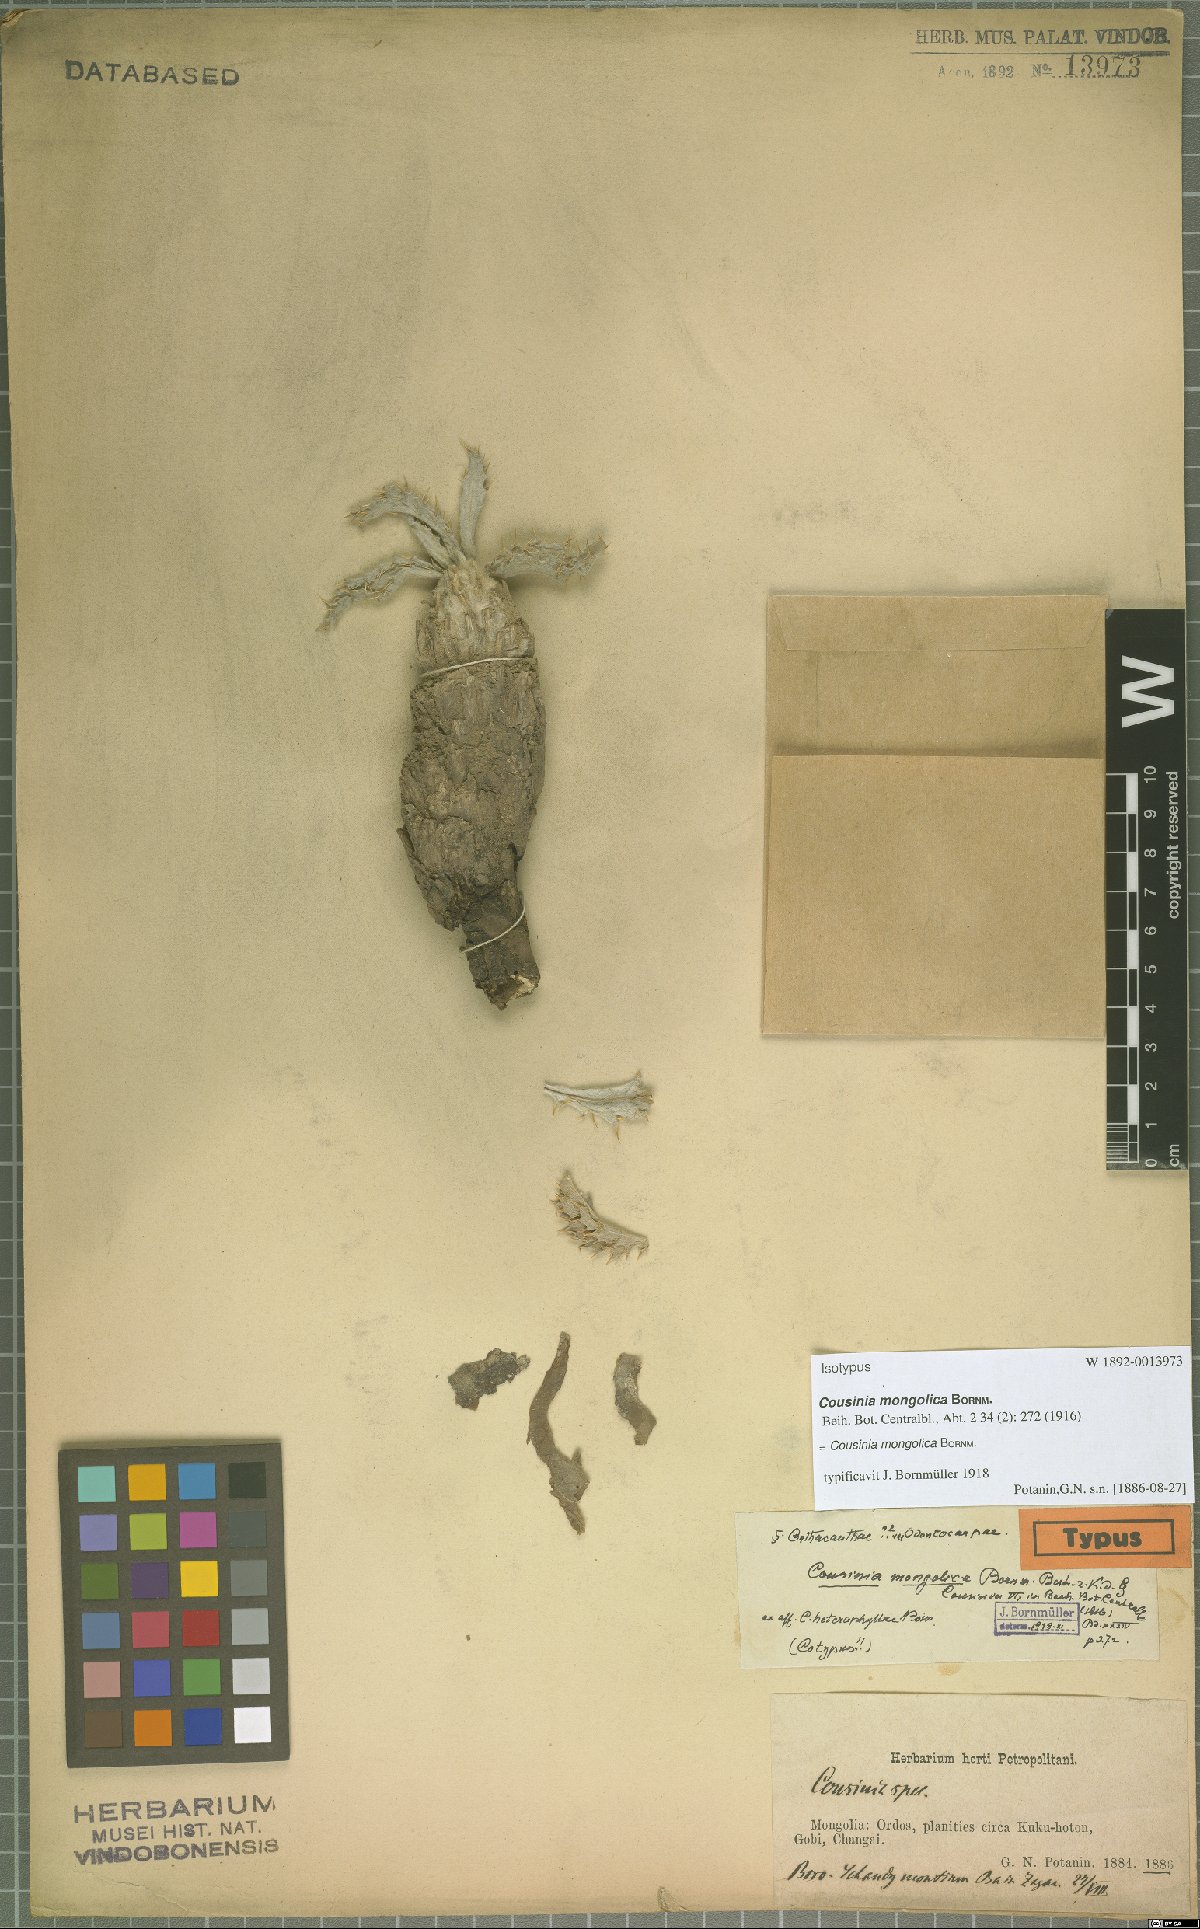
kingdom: Plantae
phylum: Tracheophyta
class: Magnoliopsida
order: Asterales
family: Asteraceae
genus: Cousinia
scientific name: Cousinia mongolica
